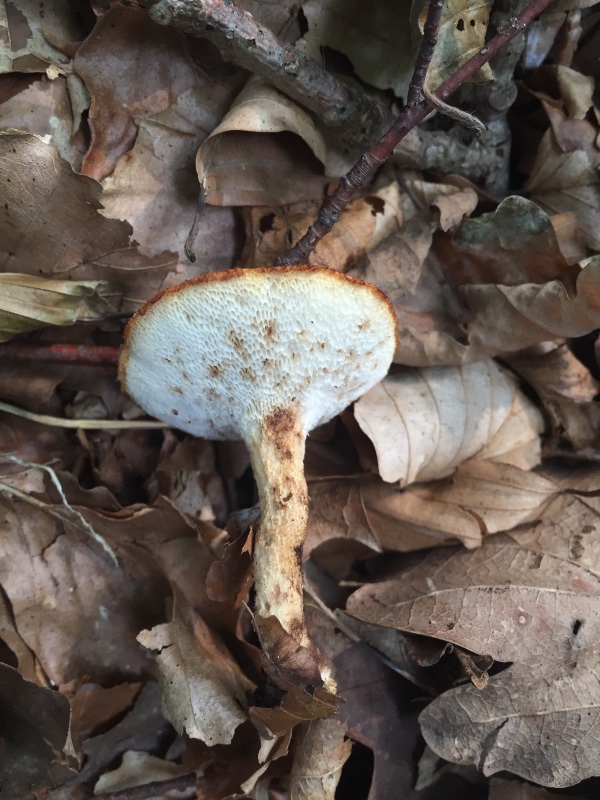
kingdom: Fungi
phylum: Basidiomycota
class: Agaricomycetes
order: Polyporales
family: Polyporaceae
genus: Polyporus
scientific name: Polyporus tuberaster
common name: knoldet stilkporesvamp
